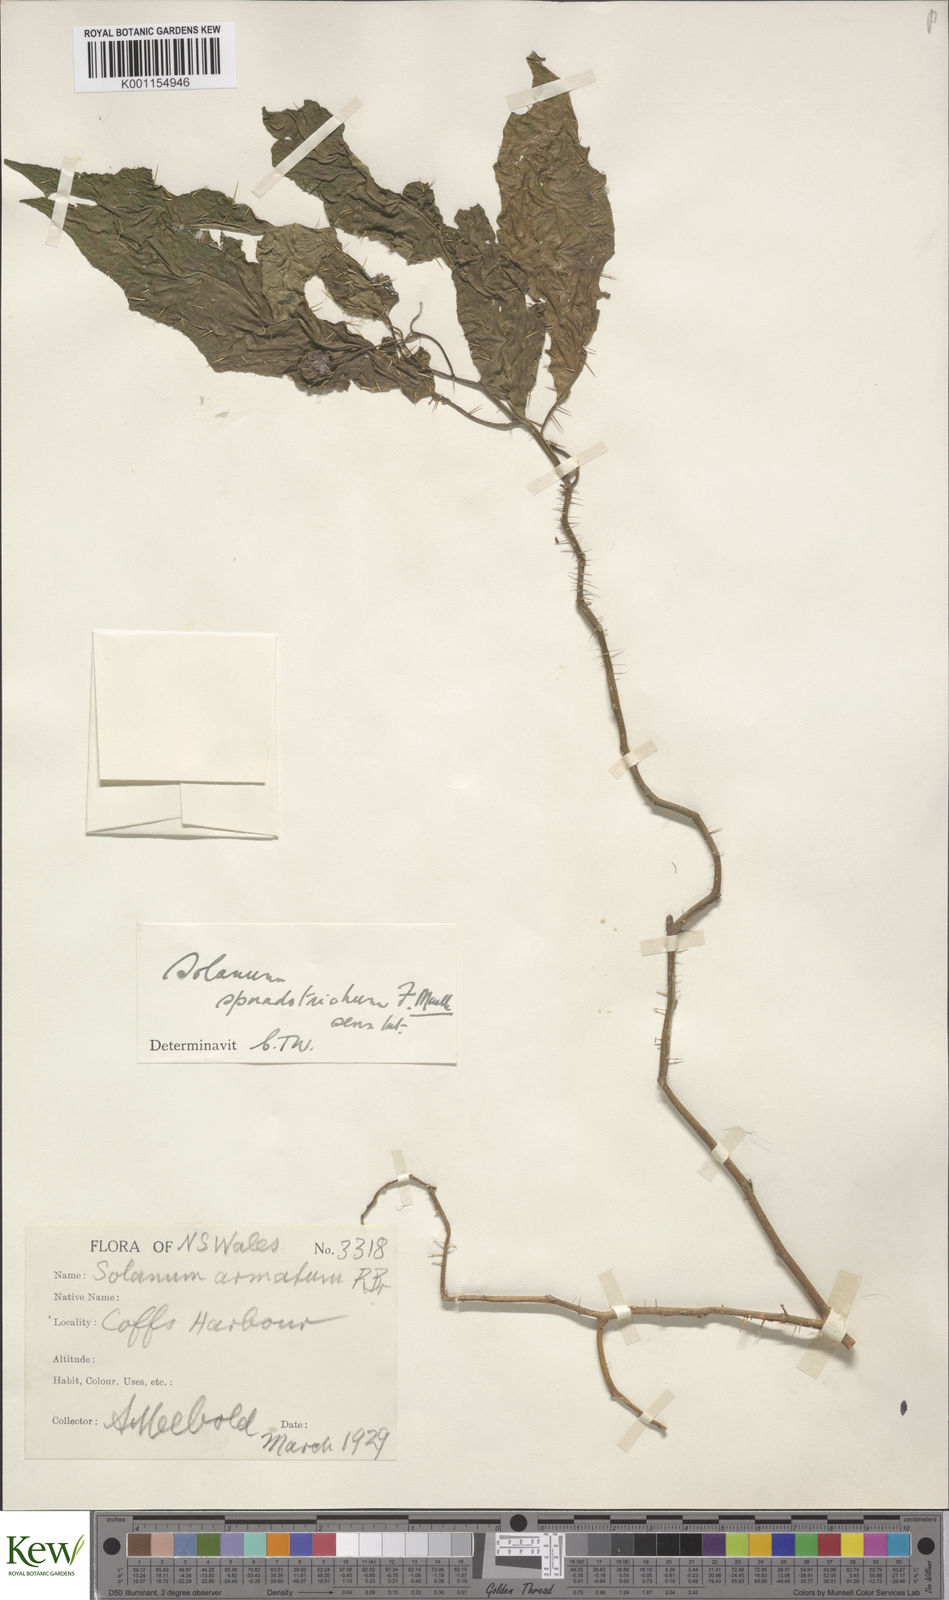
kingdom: Plantae
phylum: Tracheophyta
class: Magnoliopsida
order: Solanales
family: Solanaceae
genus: Solanum
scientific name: Solanum sporadotrichum
